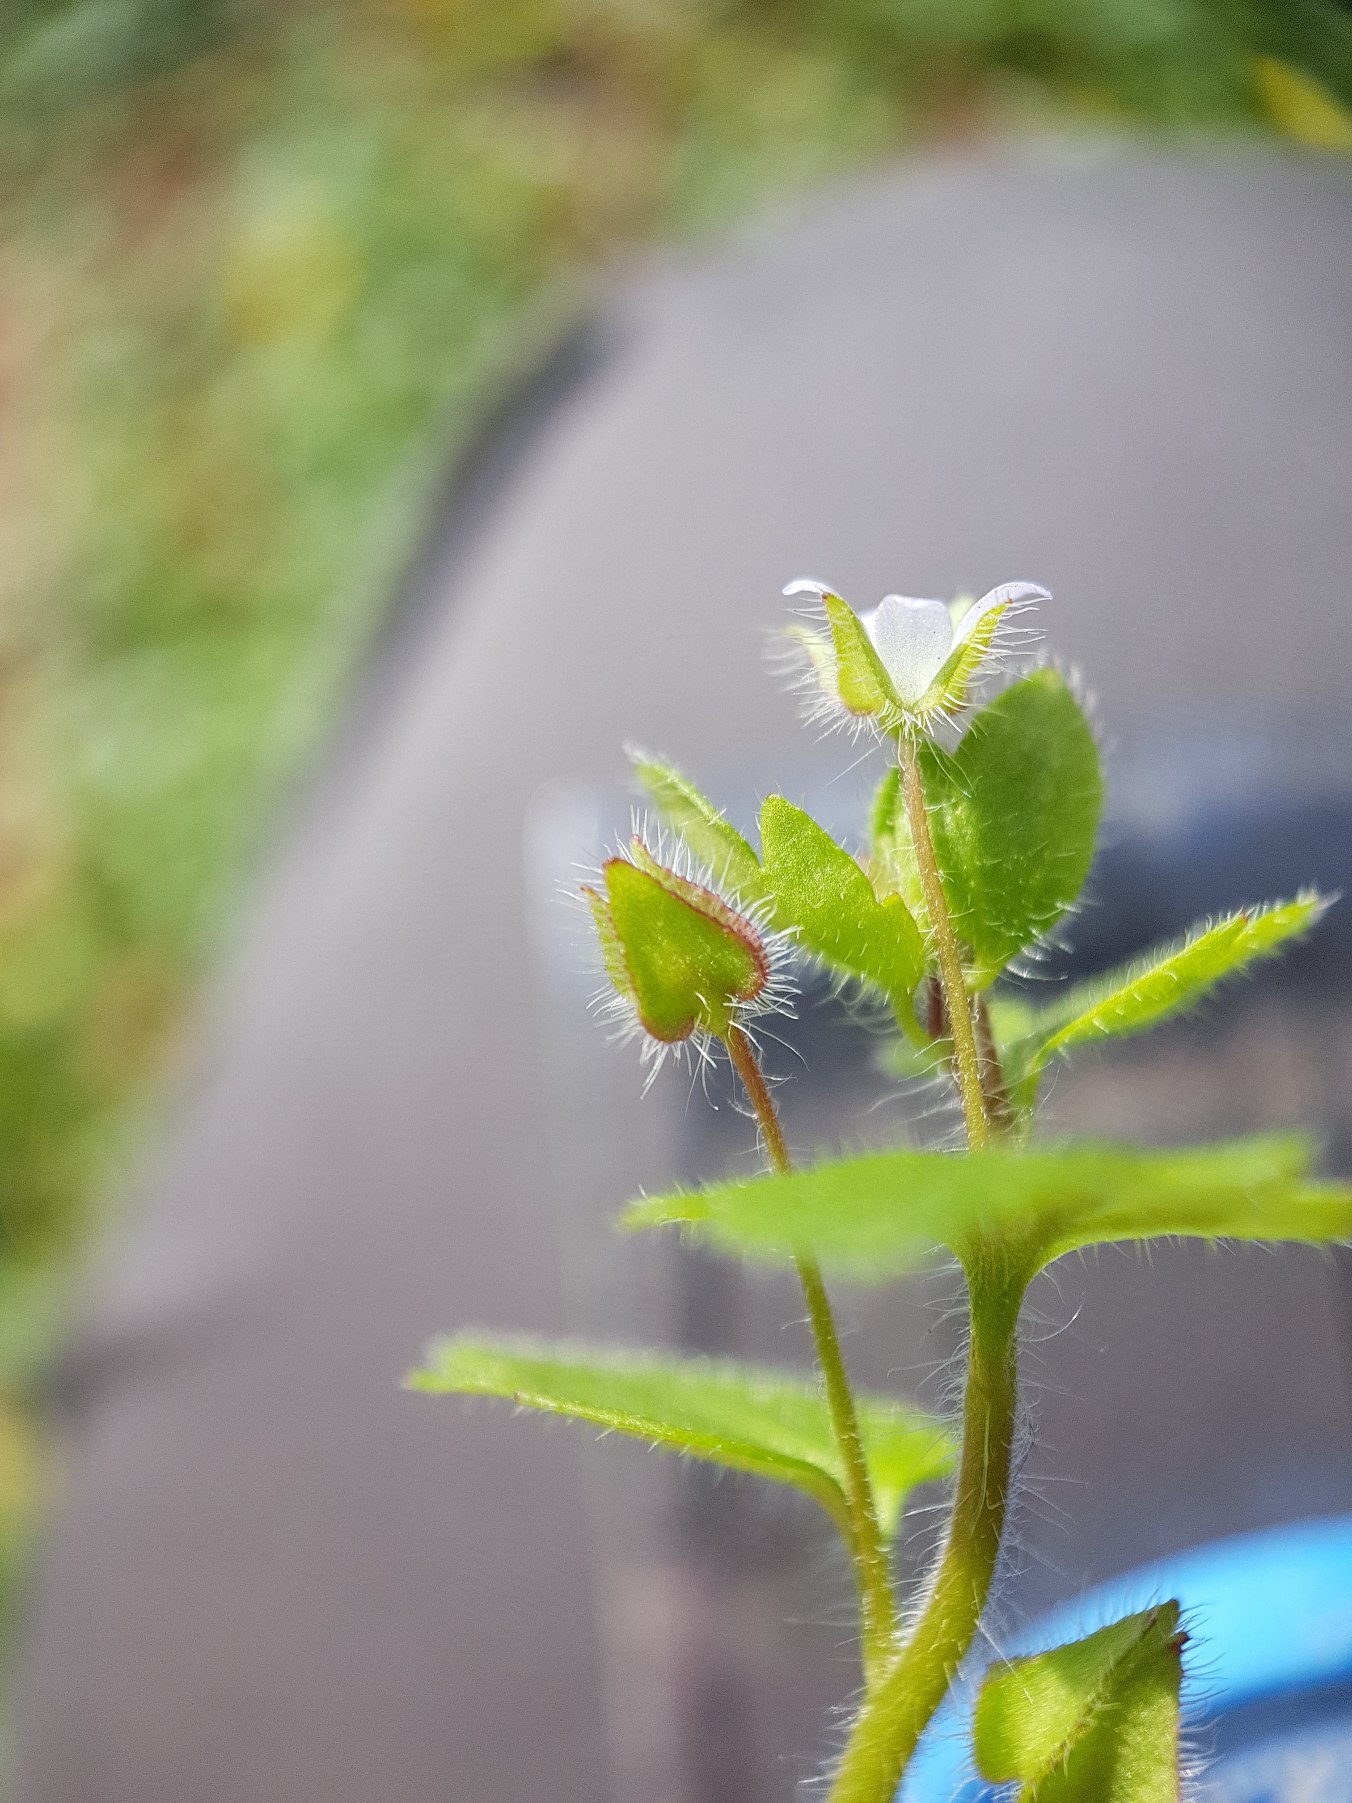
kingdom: Plantae
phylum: Tracheophyta
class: Magnoliopsida
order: Lamiales
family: Plantaginaceae
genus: Veronica
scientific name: Veronica sublobata
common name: Krat-ærenpris
